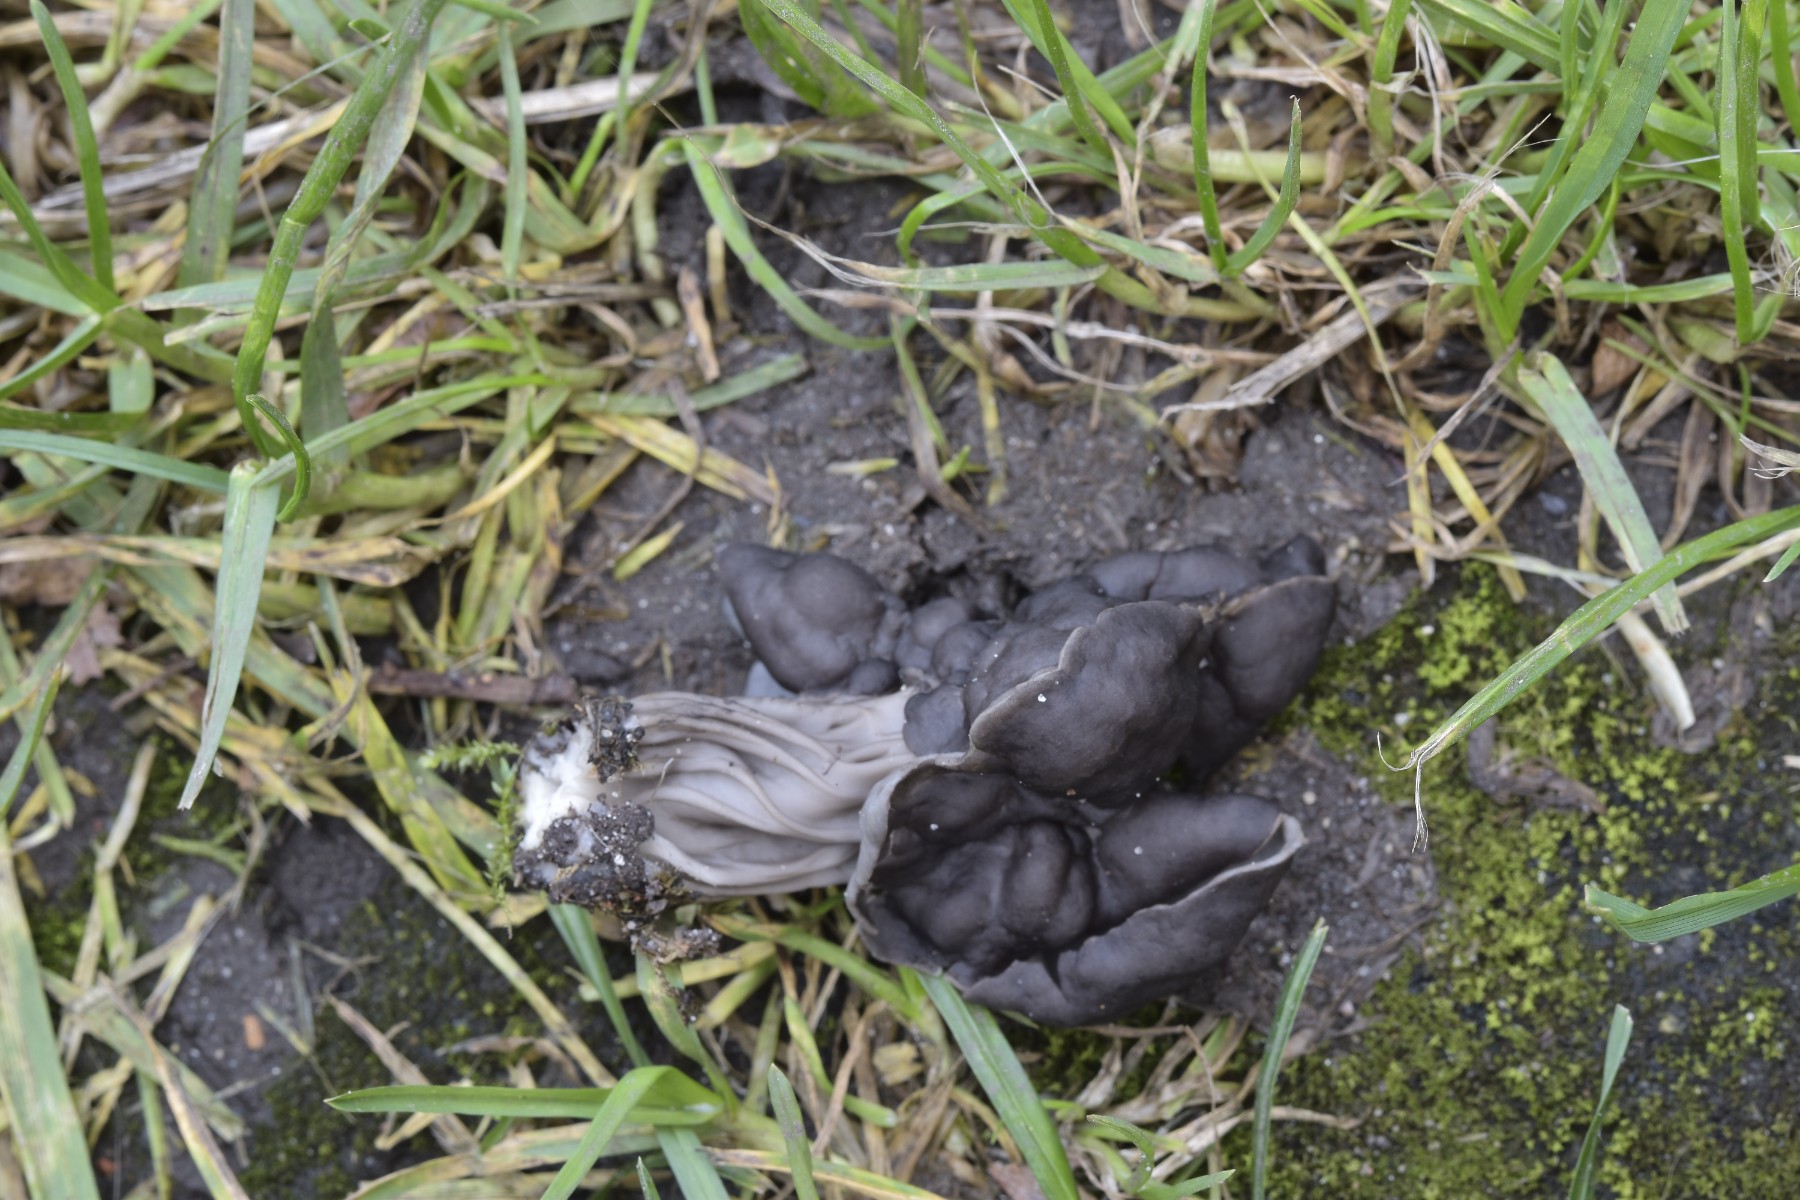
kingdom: Fungi
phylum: Ascomycota
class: Pezizomycetes
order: Pezizales
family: Helvellaceae
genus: Helvella
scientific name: Helvella lacunosa
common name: grubet foldhat
